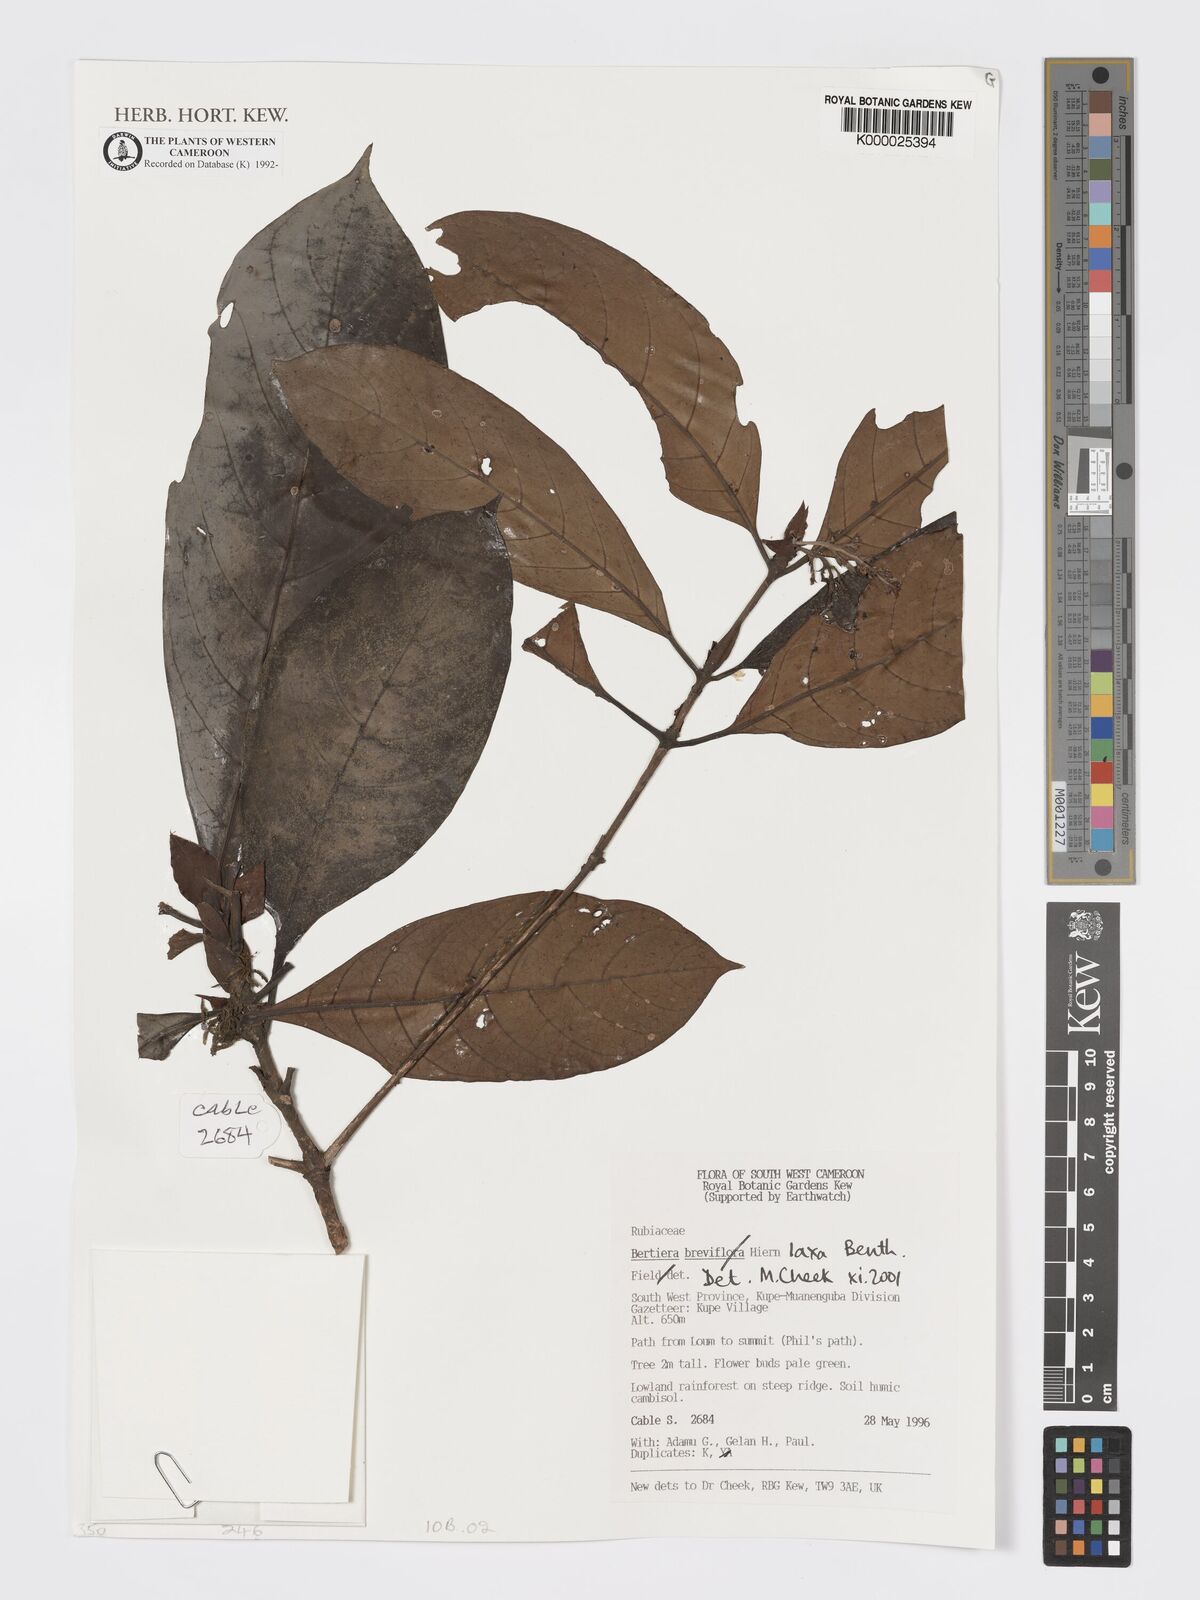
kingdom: Plantae
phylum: Tracheophyta
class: Magnoliopsida
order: Gentianales
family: Rubiaceae
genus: Bertiera
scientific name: Bertiera laxa
